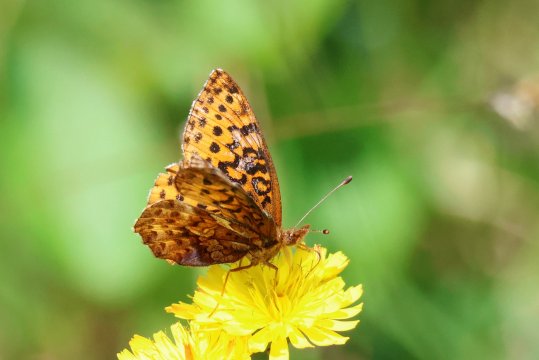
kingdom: Animalia
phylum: Arthropoda
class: Insecta
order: Lepidoptera
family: Nymphalidae
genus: Clossiana
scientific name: Clossiana toddi
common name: Meadow Fritillary
